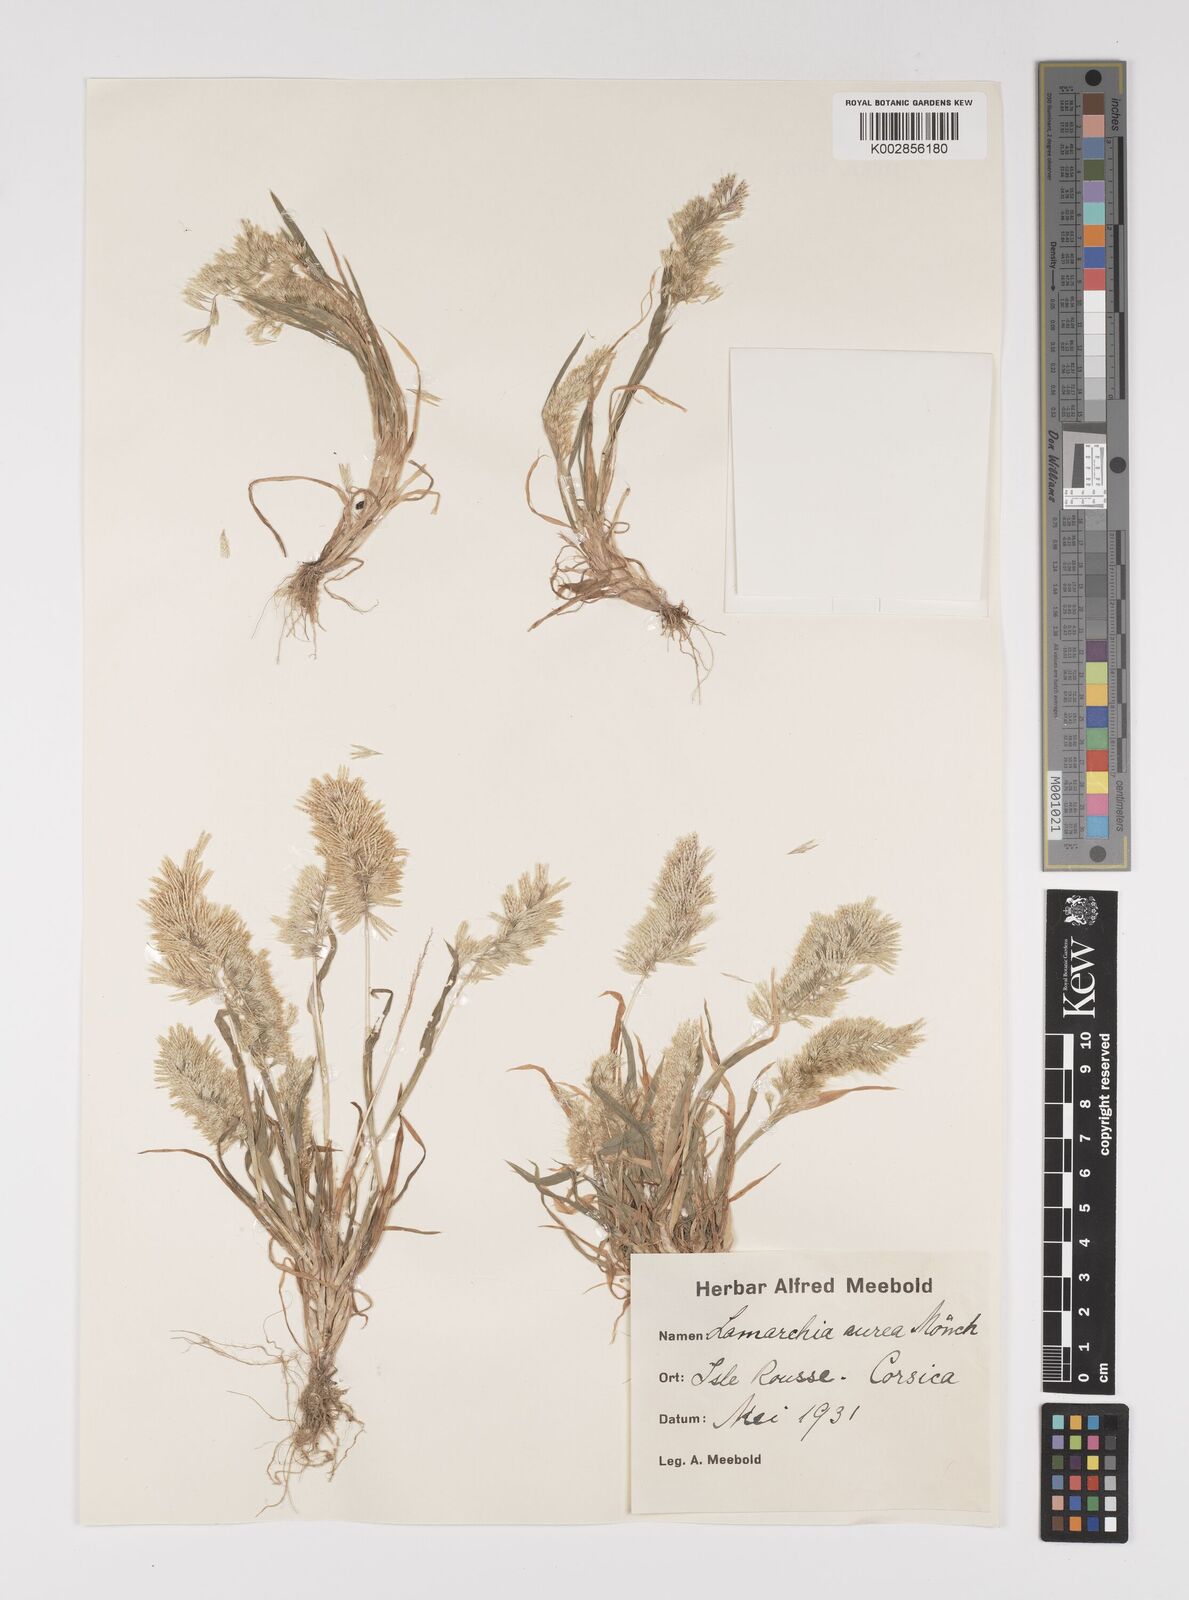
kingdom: Plantae
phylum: Tracheophyta
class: Liliopsida
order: Poales
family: Poaceae
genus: Lamarckia
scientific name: Lamarckia aurea
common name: Golden dog's-tail
